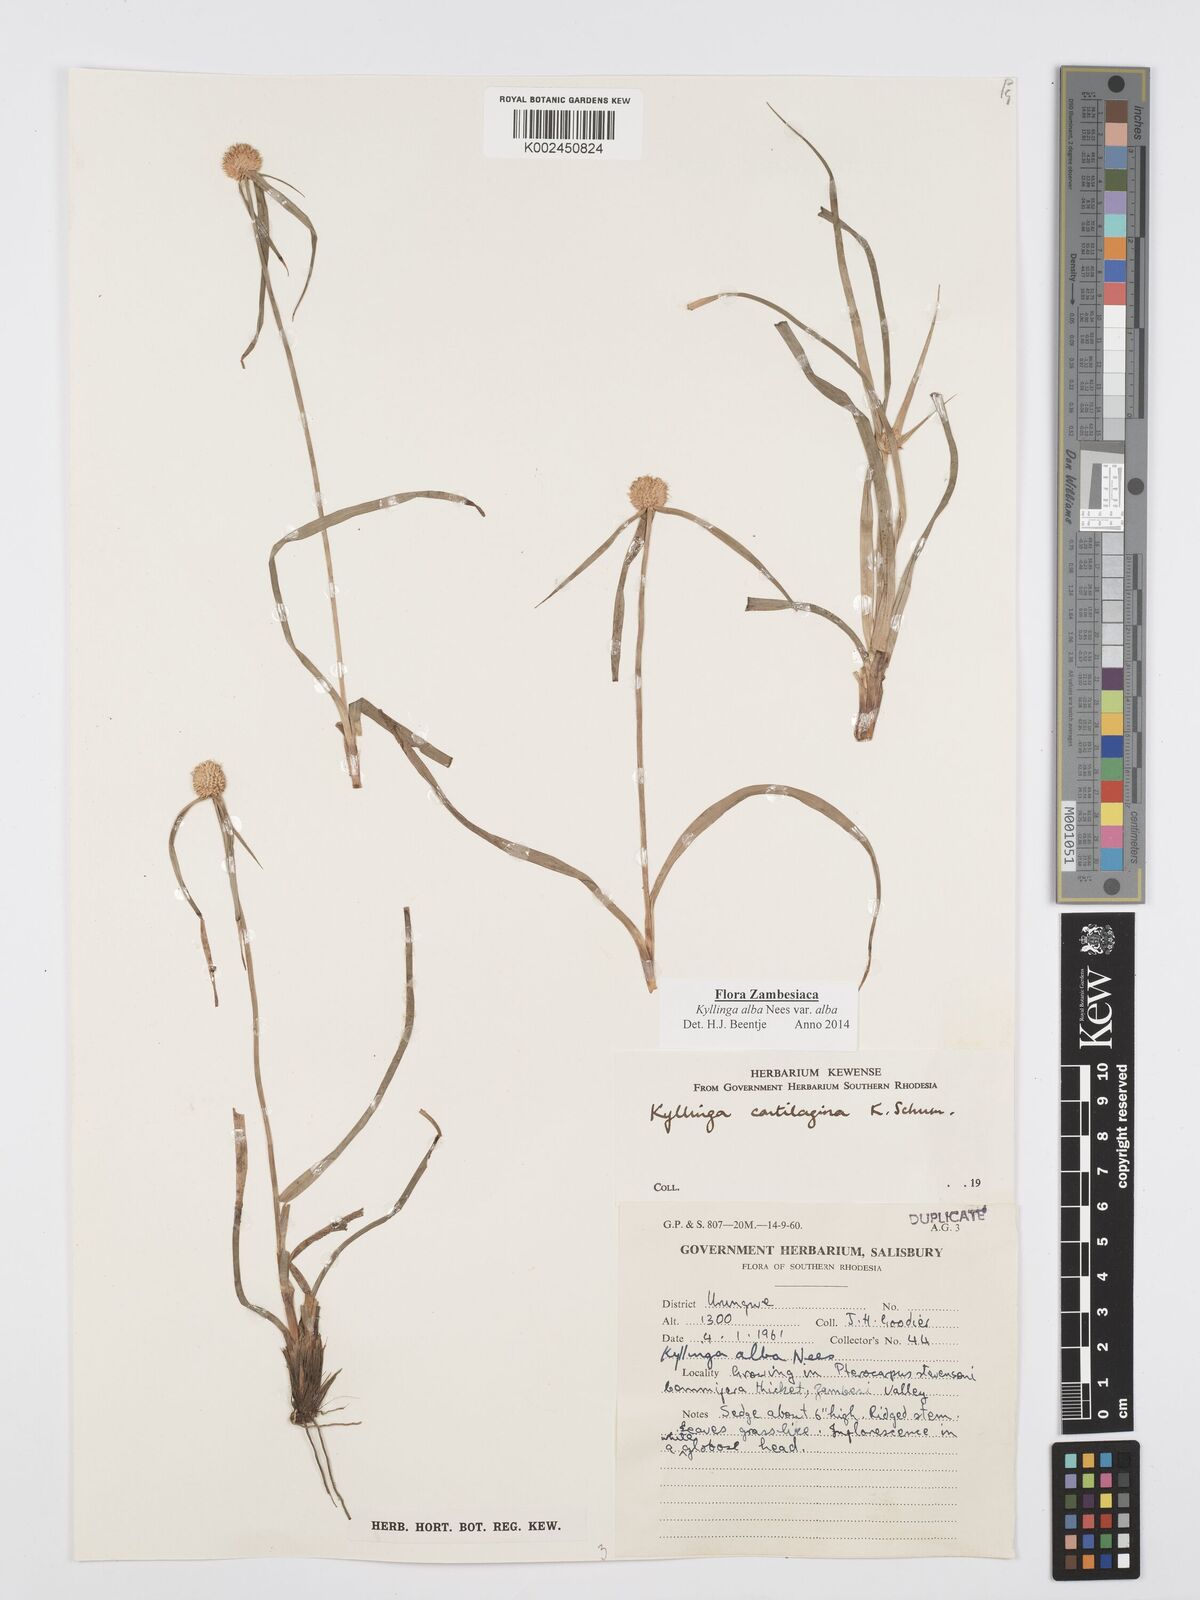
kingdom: Plantae
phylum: Tracheophyta
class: Liliopsida
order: Poales
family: Cyperaceae
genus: Cyperus
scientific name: Cyperus
